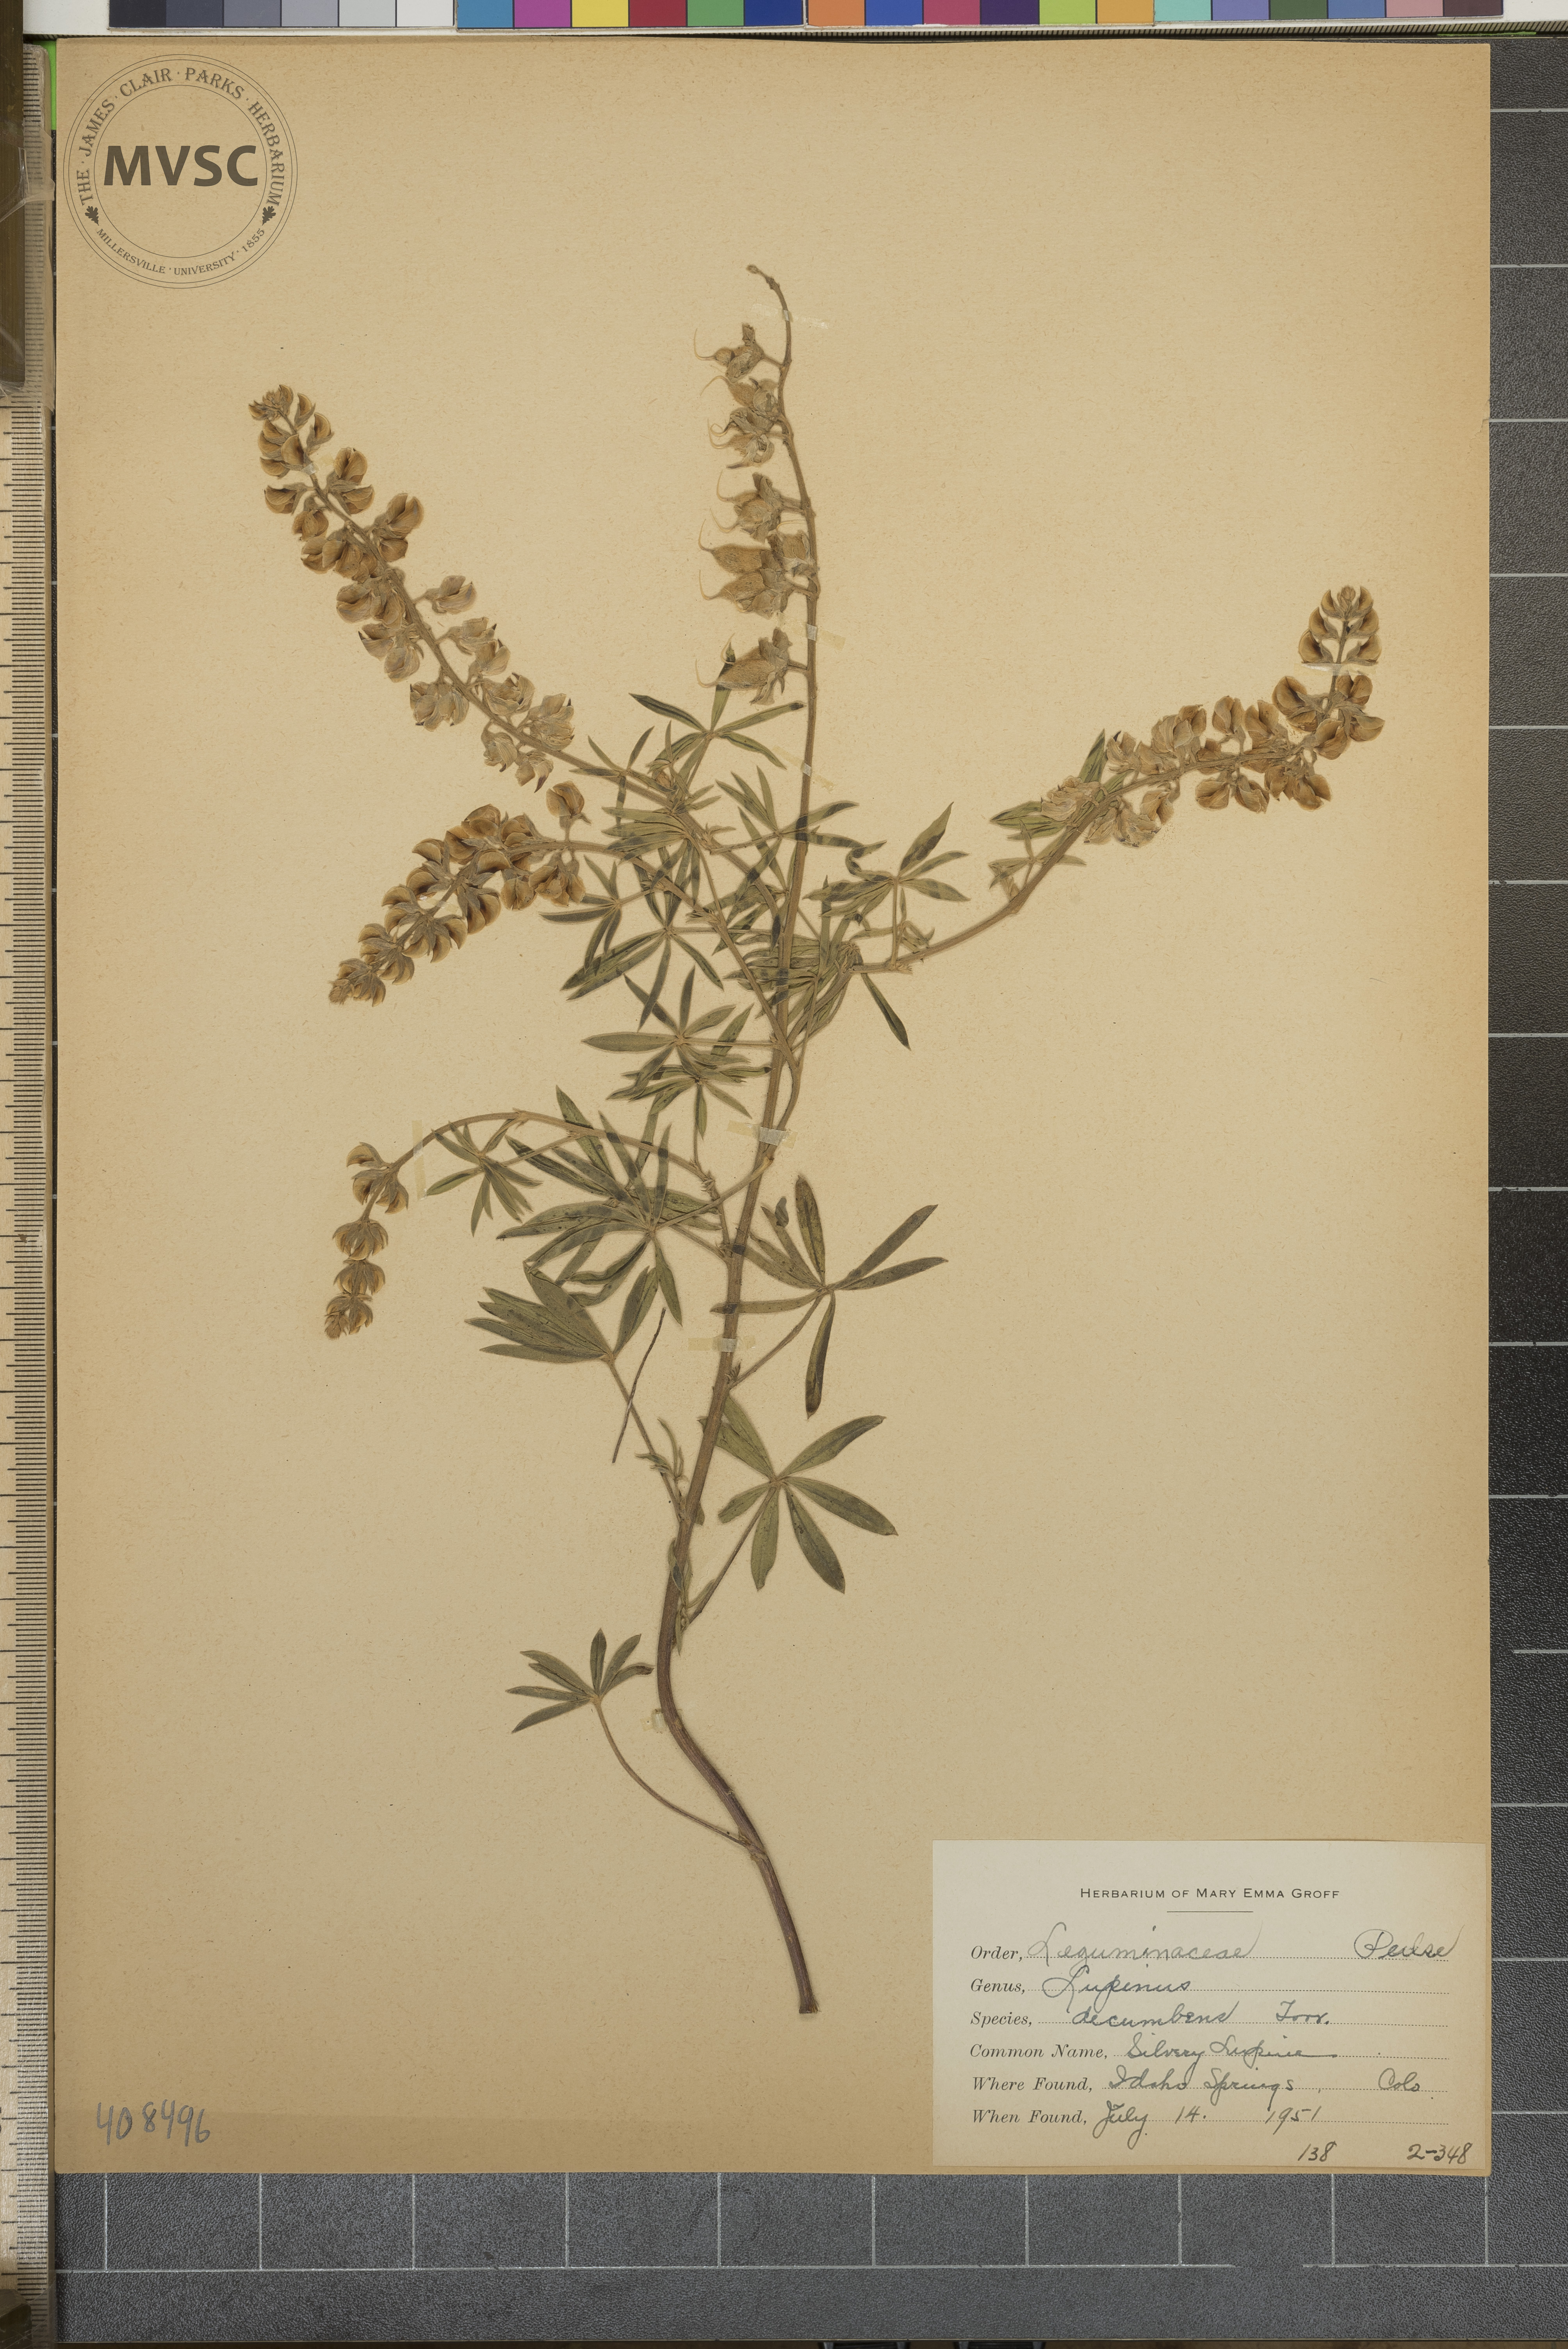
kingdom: Plantae
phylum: Tracheophyta
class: Magnoliopsida
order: Fabales
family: Fabaceae
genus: Lupinus
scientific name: Lupinus argenteus
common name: Silvery Lupine
